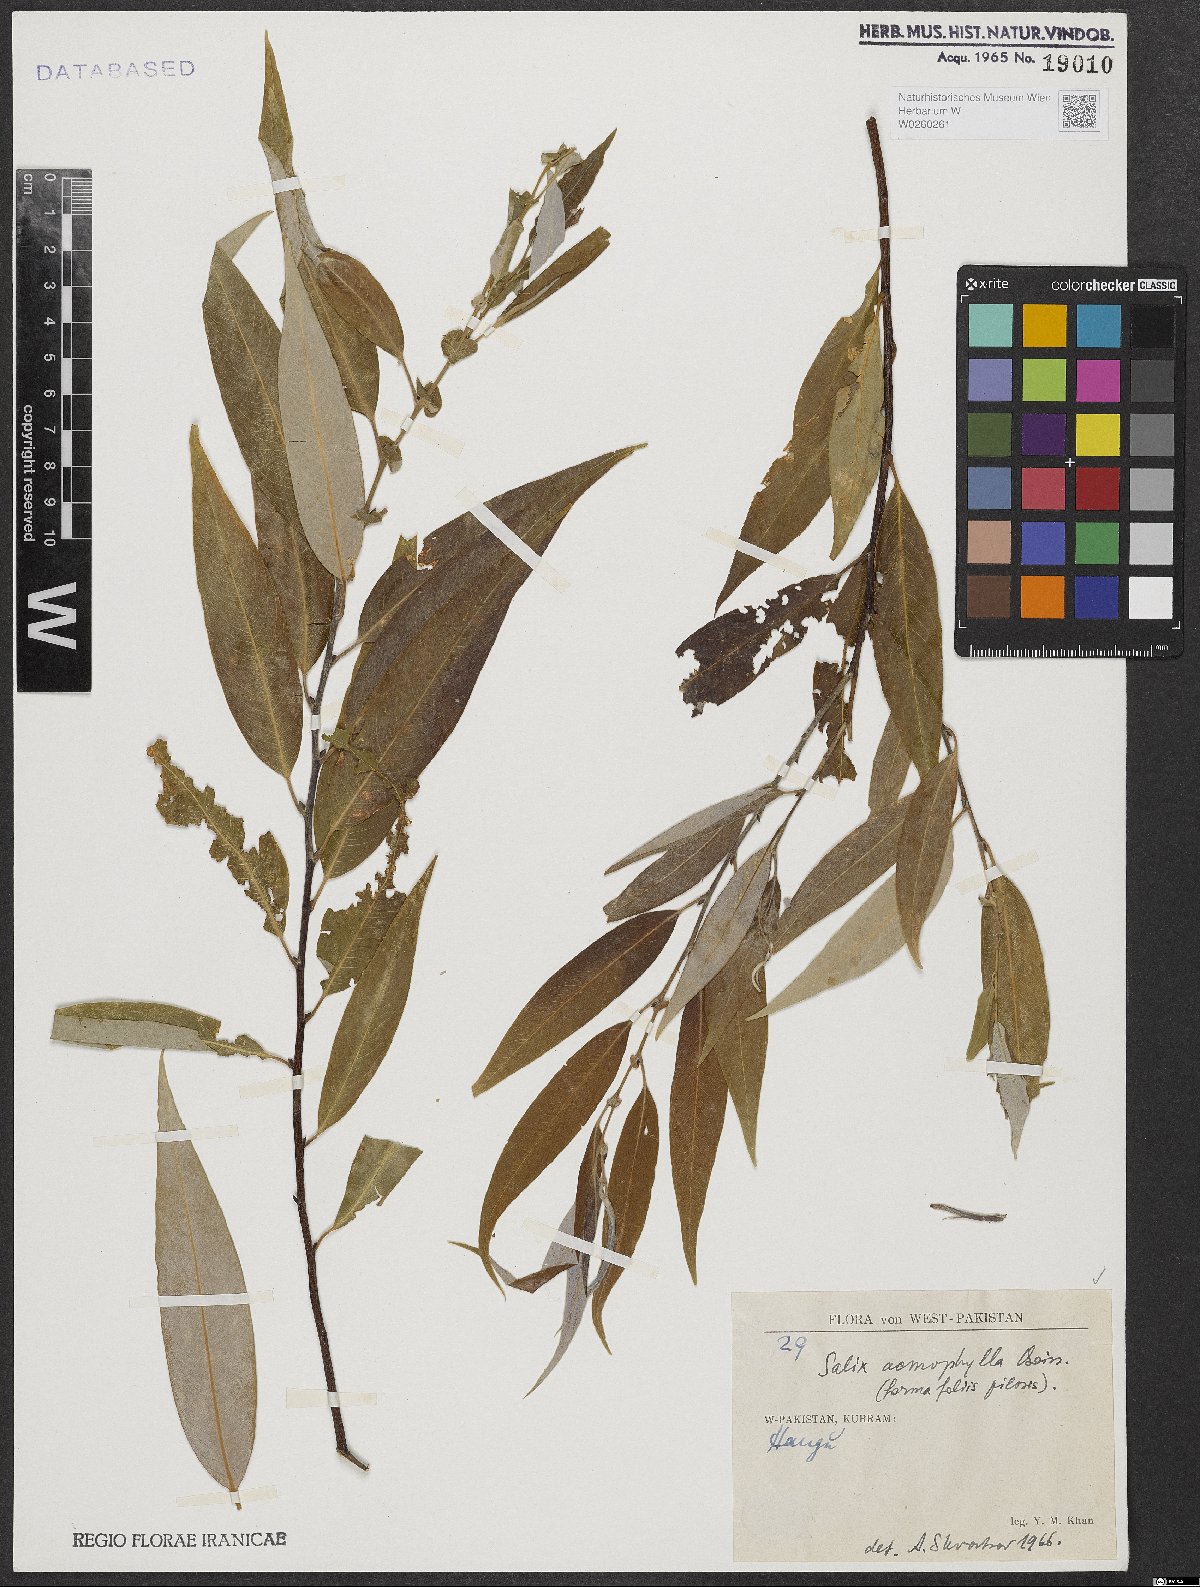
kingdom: Plantae
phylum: Tracheophyta
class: Magnoliopsida
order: Malpighiales
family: Salicaceae
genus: Salix
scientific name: Salix acmophylla
